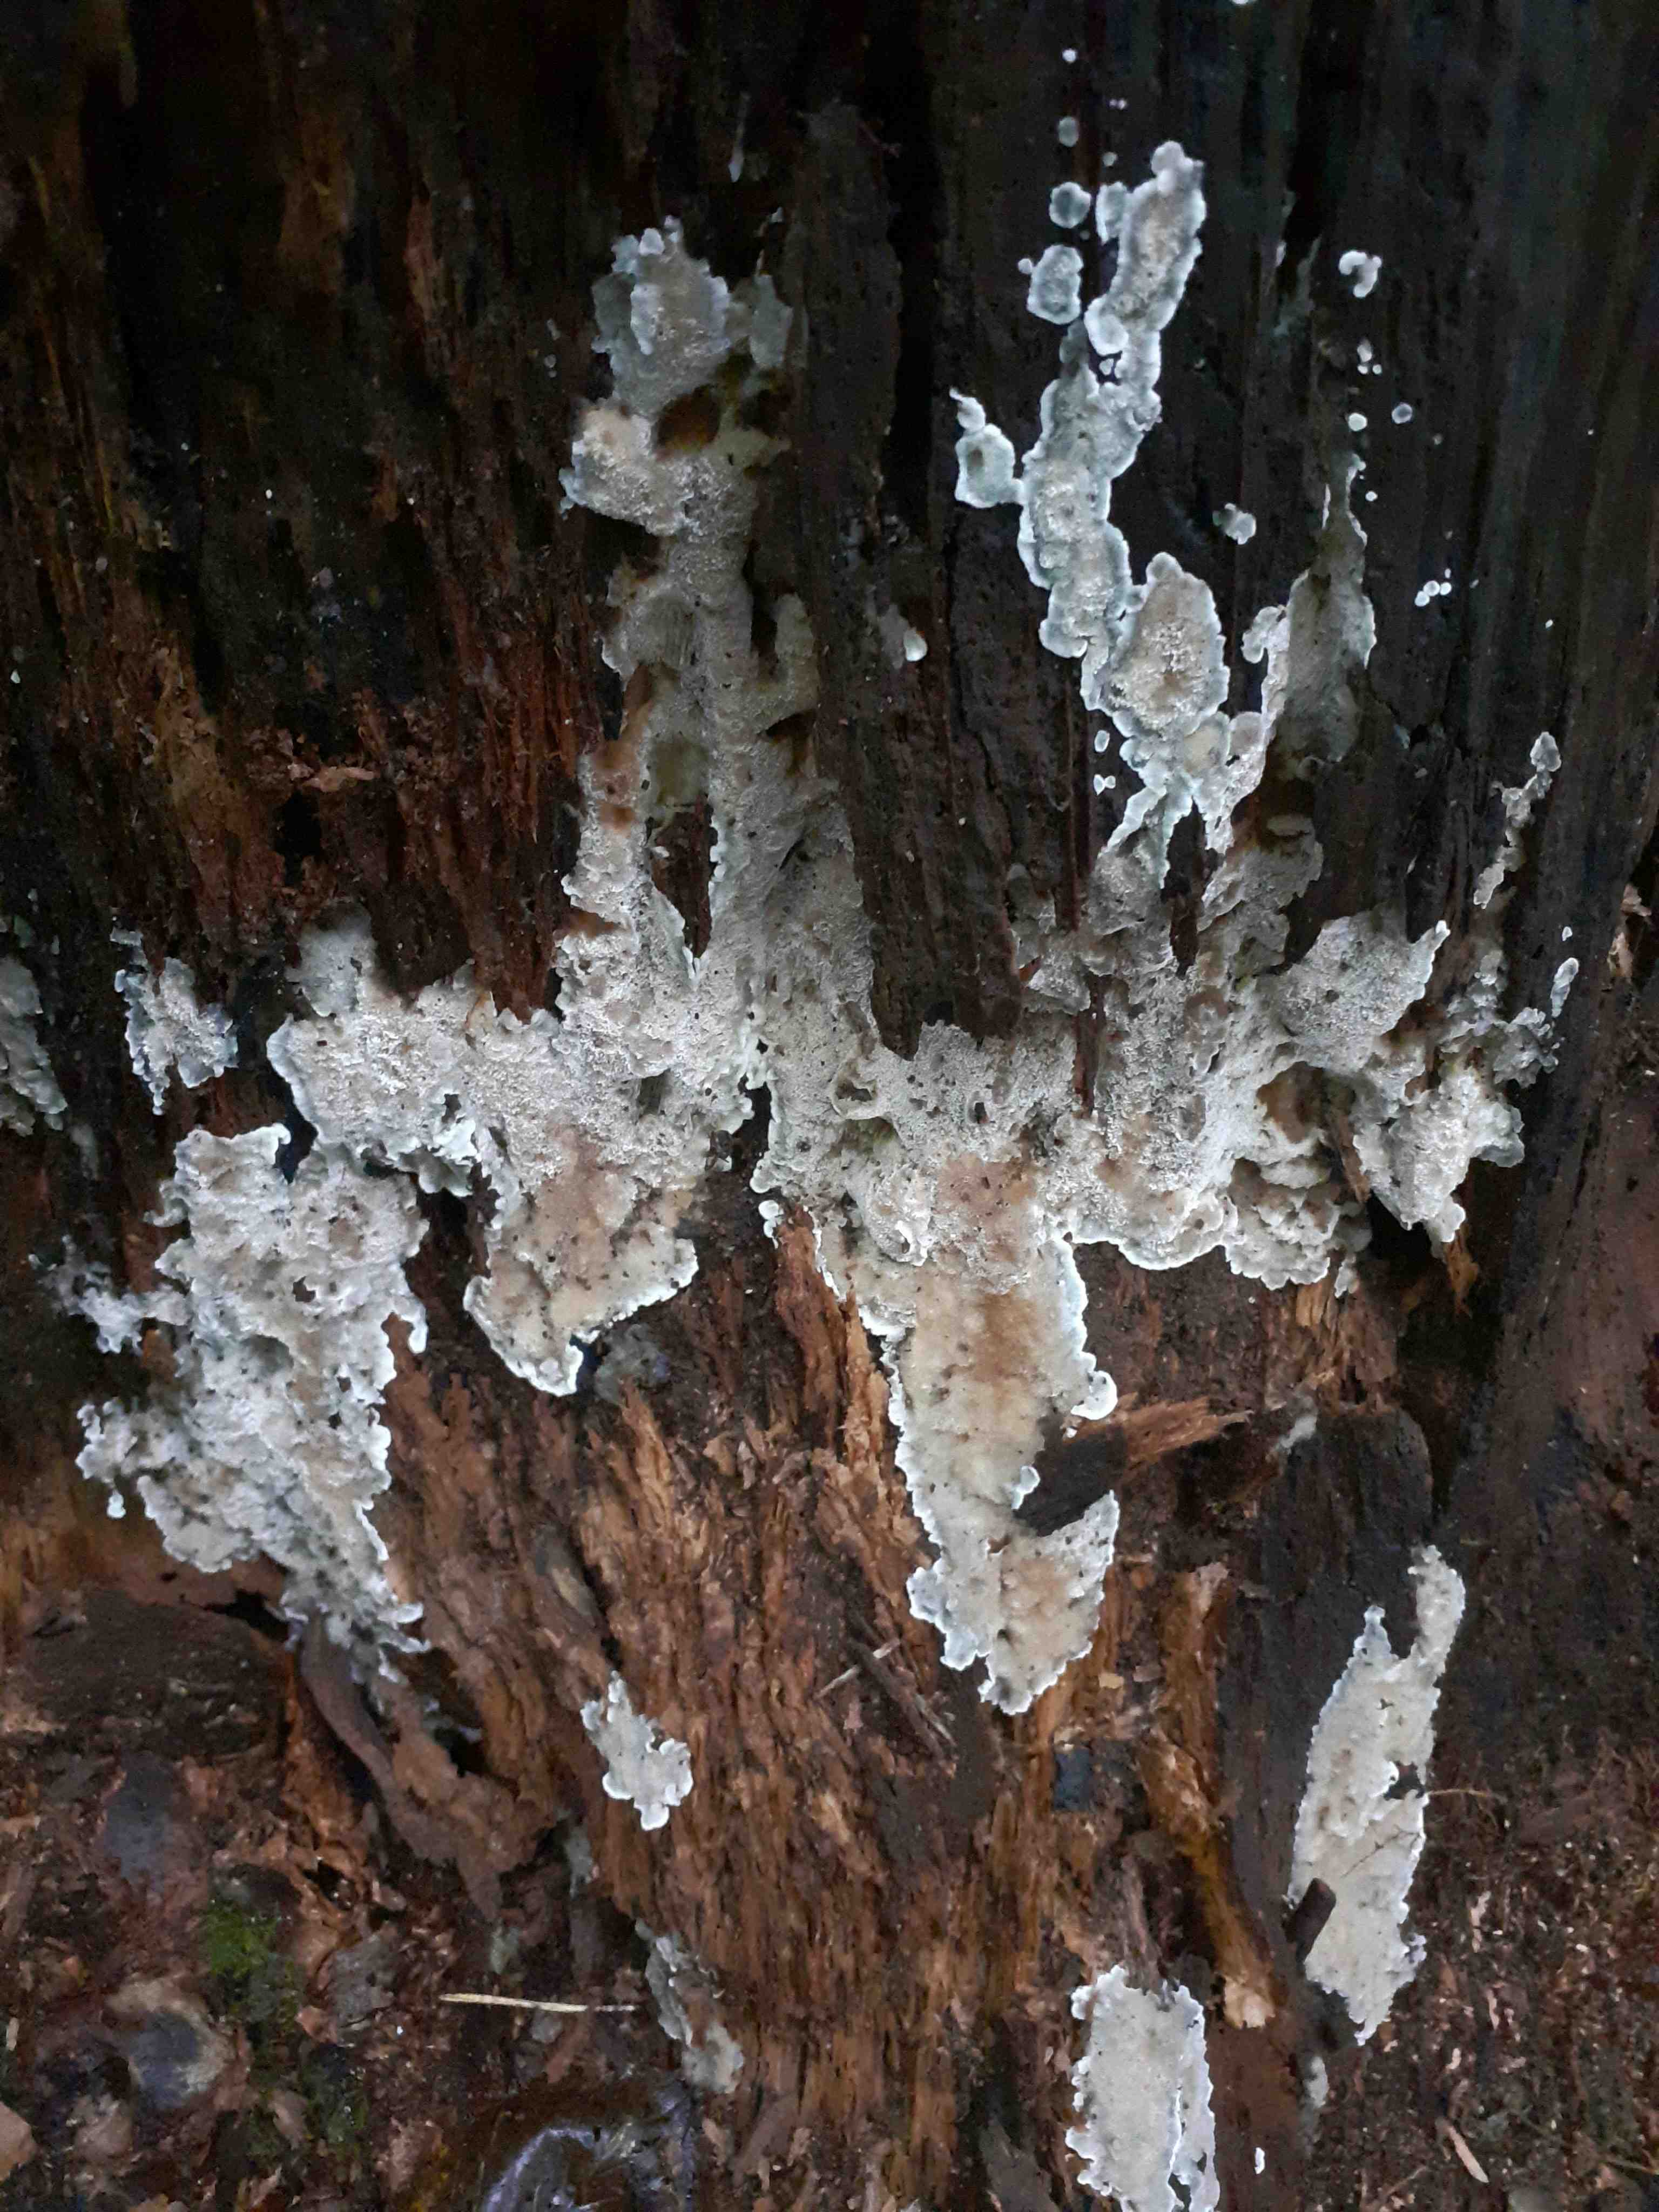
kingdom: Fungi
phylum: Basidiomycota
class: Agaricomycetes
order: Polyporales
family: Meruliaceae
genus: Physisporinus
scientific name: Physisporinus vitreus
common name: mastesvamp
